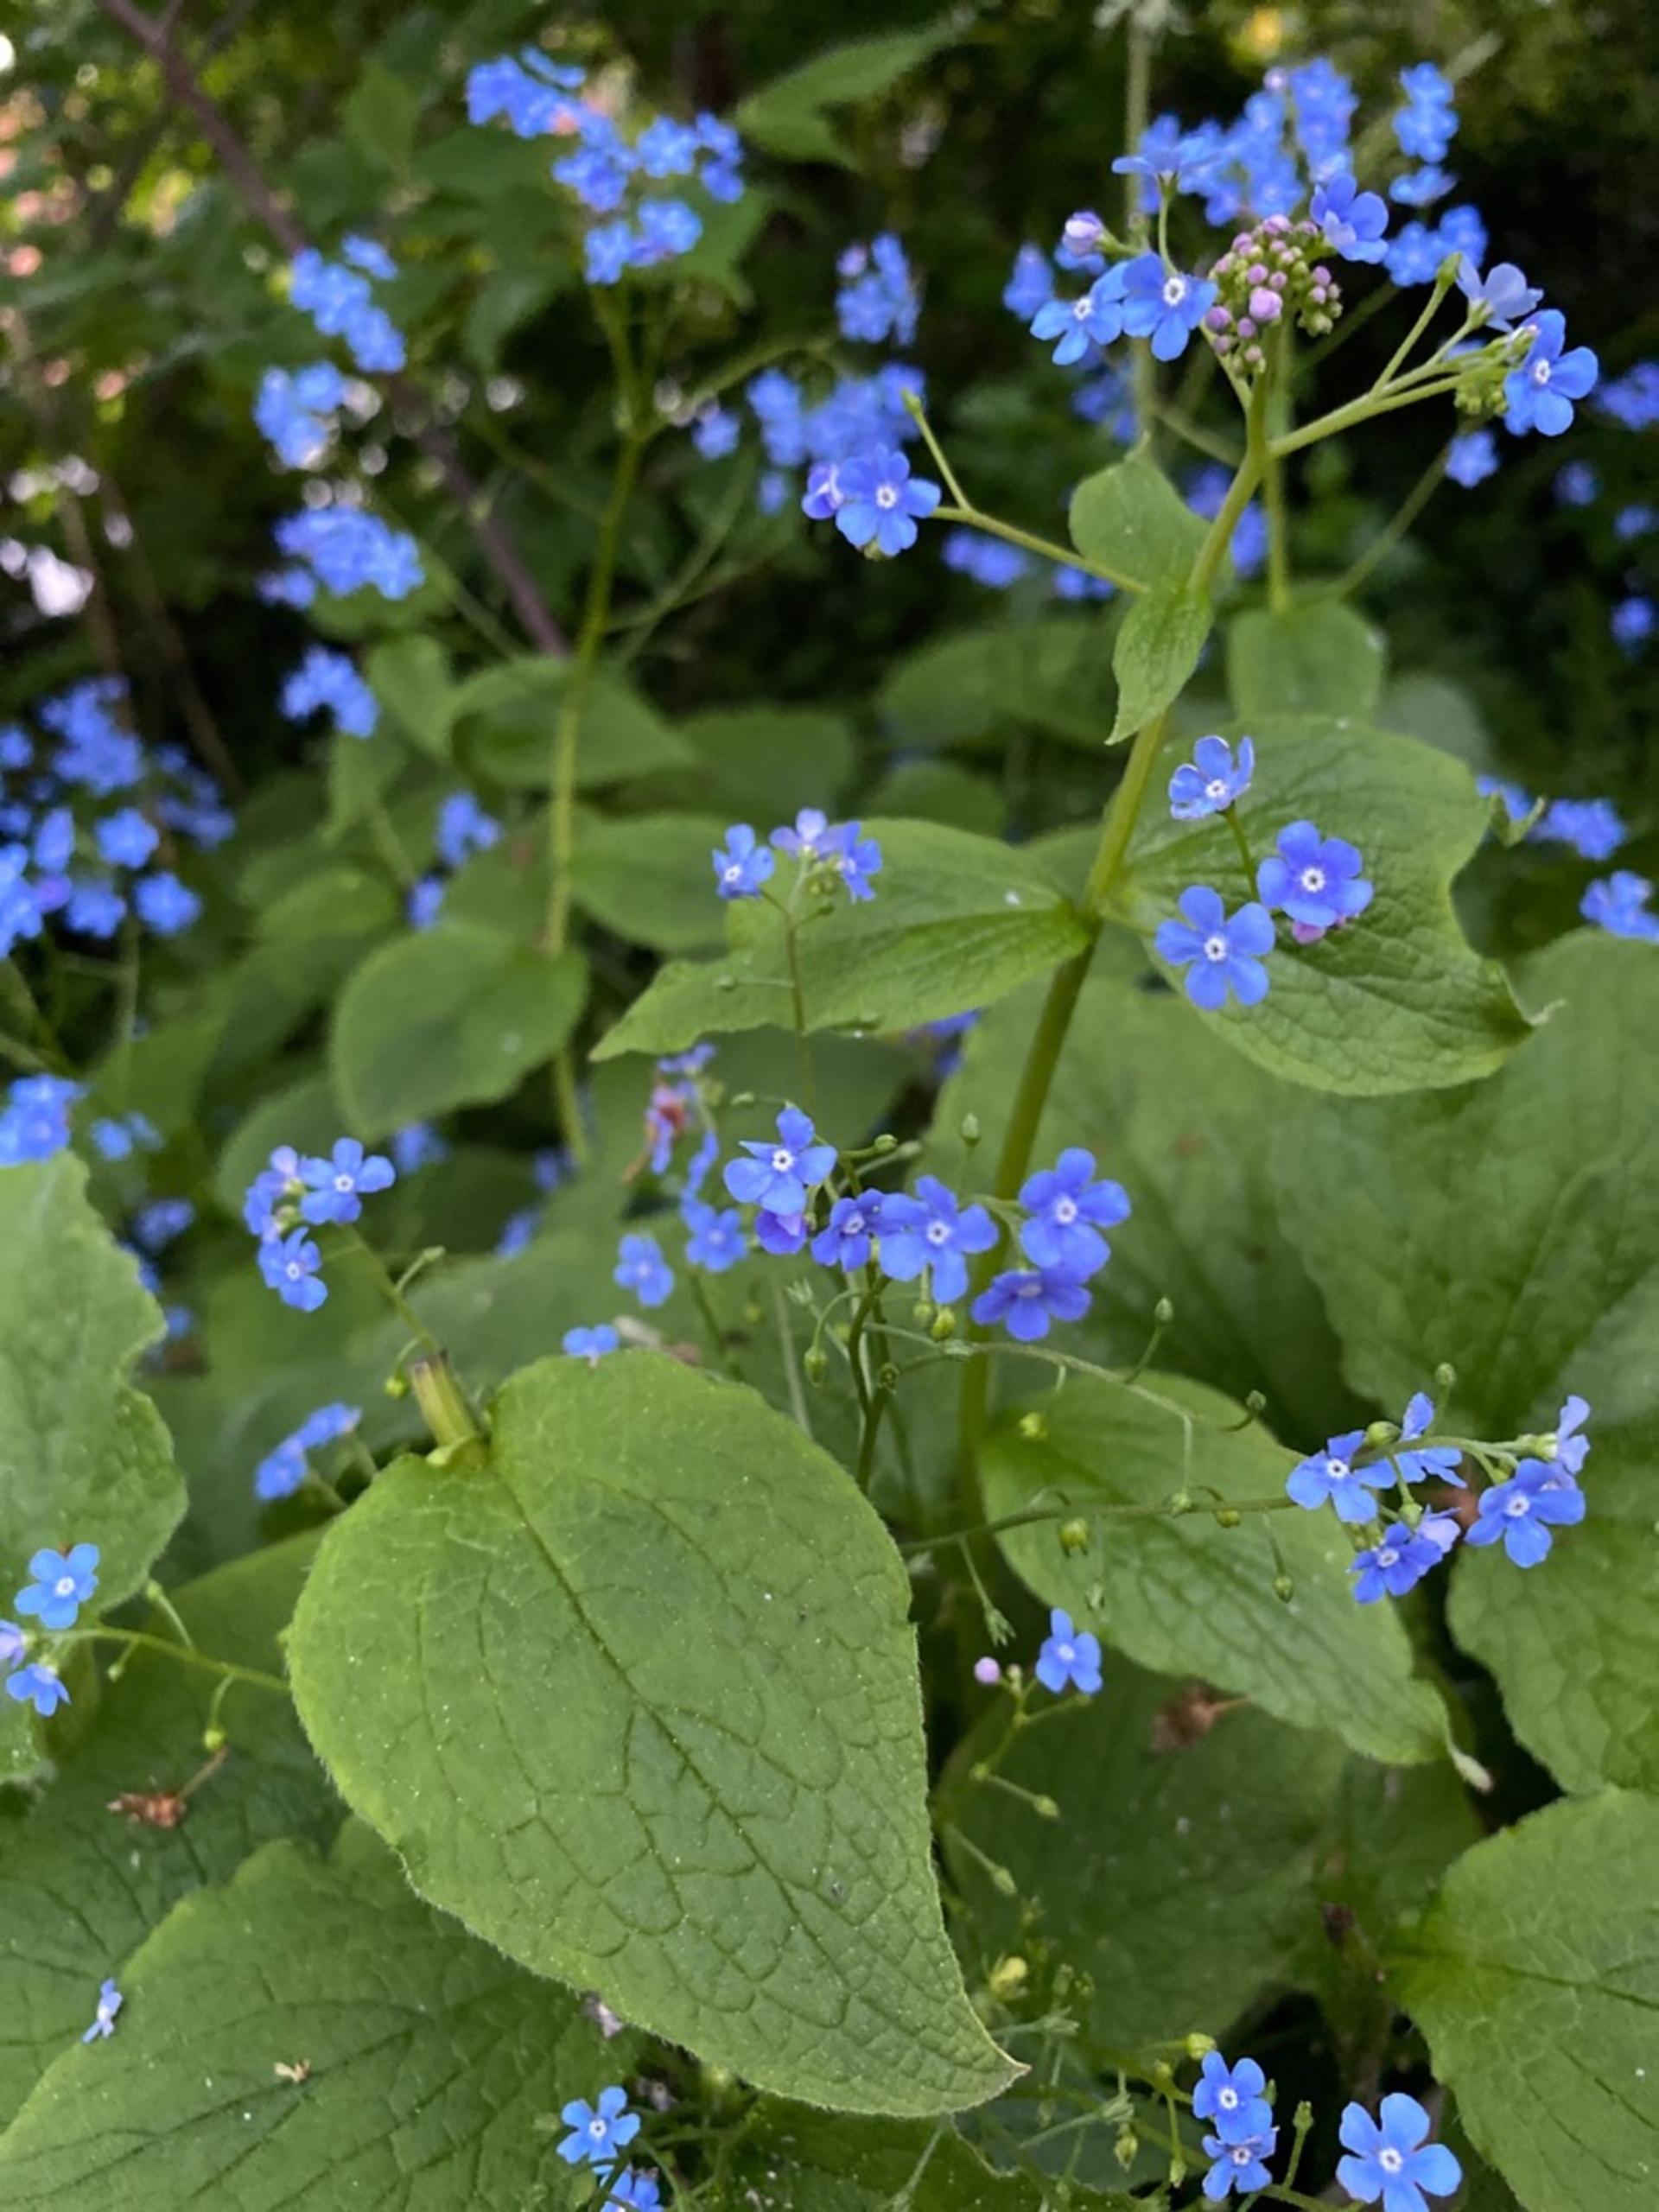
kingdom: Plantae
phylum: Tracheophyta
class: Magnoliopsida
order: Boraginales
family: Boraginaceae
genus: Brunnera
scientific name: Brunnera macrophylla
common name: Kærmindesøster
